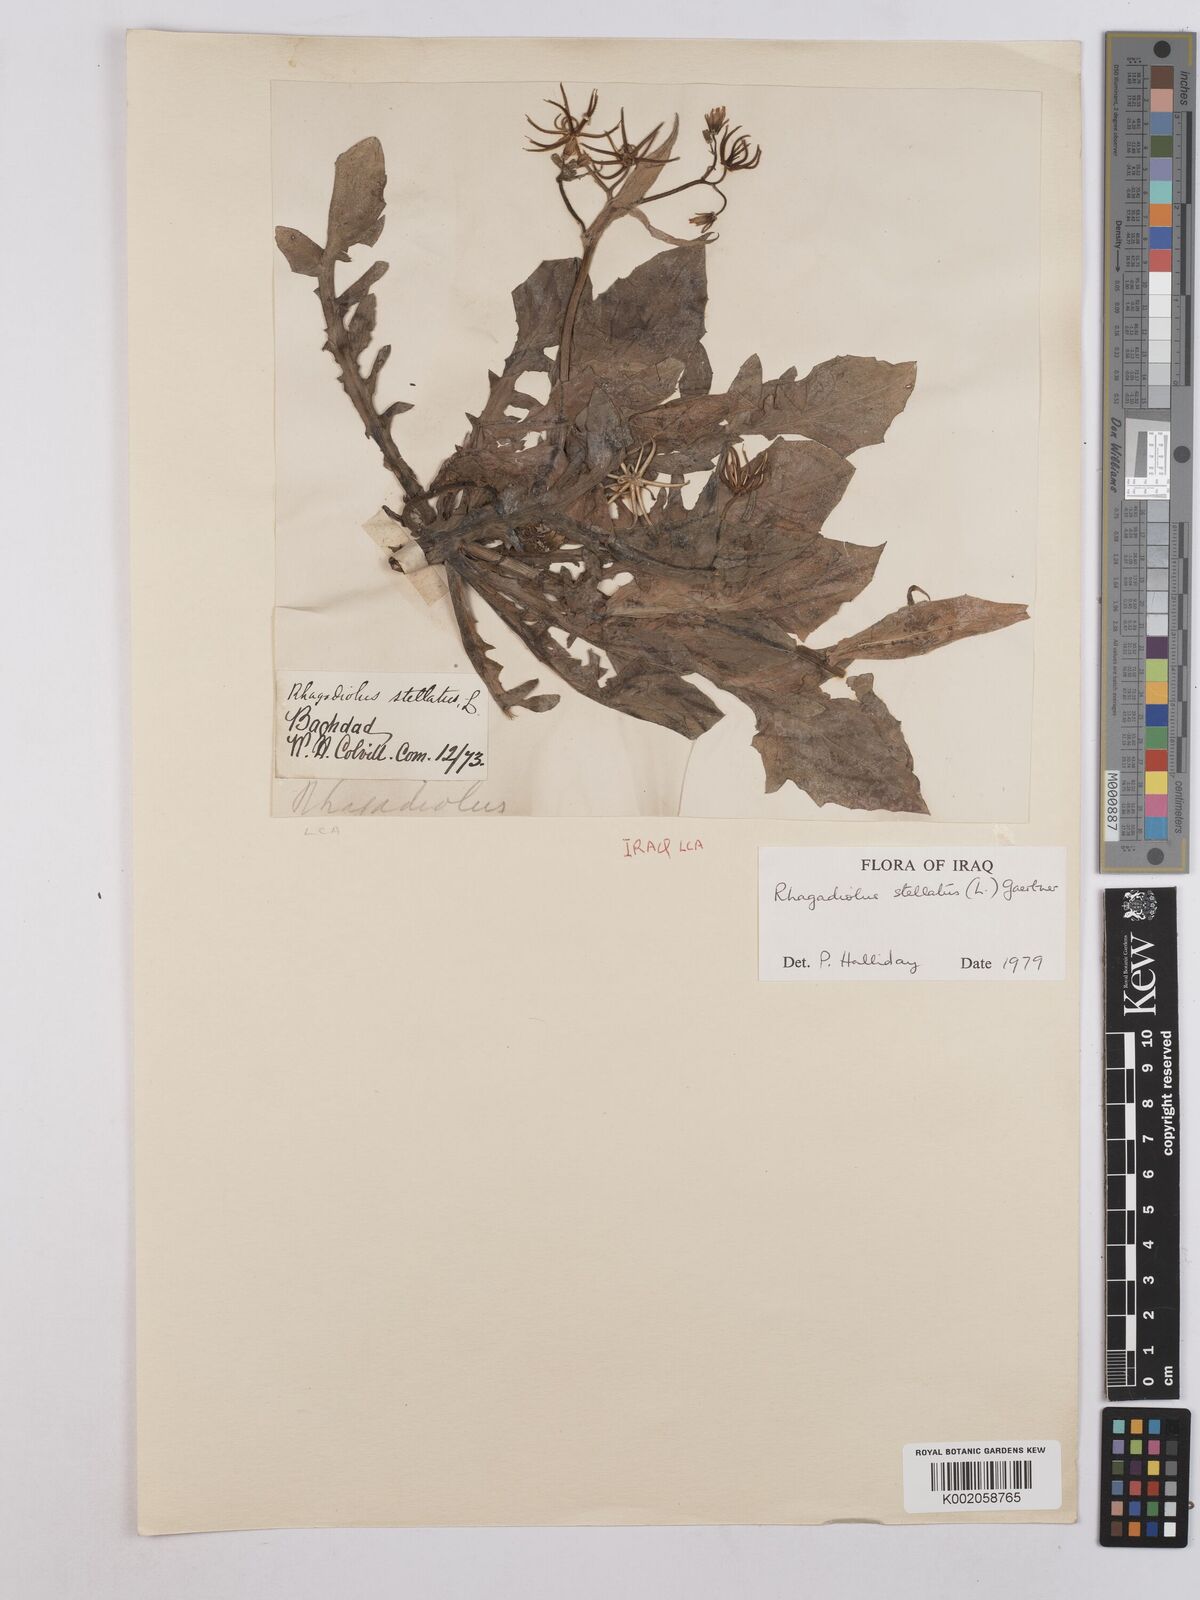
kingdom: Plantae
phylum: Tracheophyta
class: Magnoliopsida
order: Asterales
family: Asteraceae
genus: Rhagadiolus
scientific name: Rhagadiolus stellatus
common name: Star hawkbit
